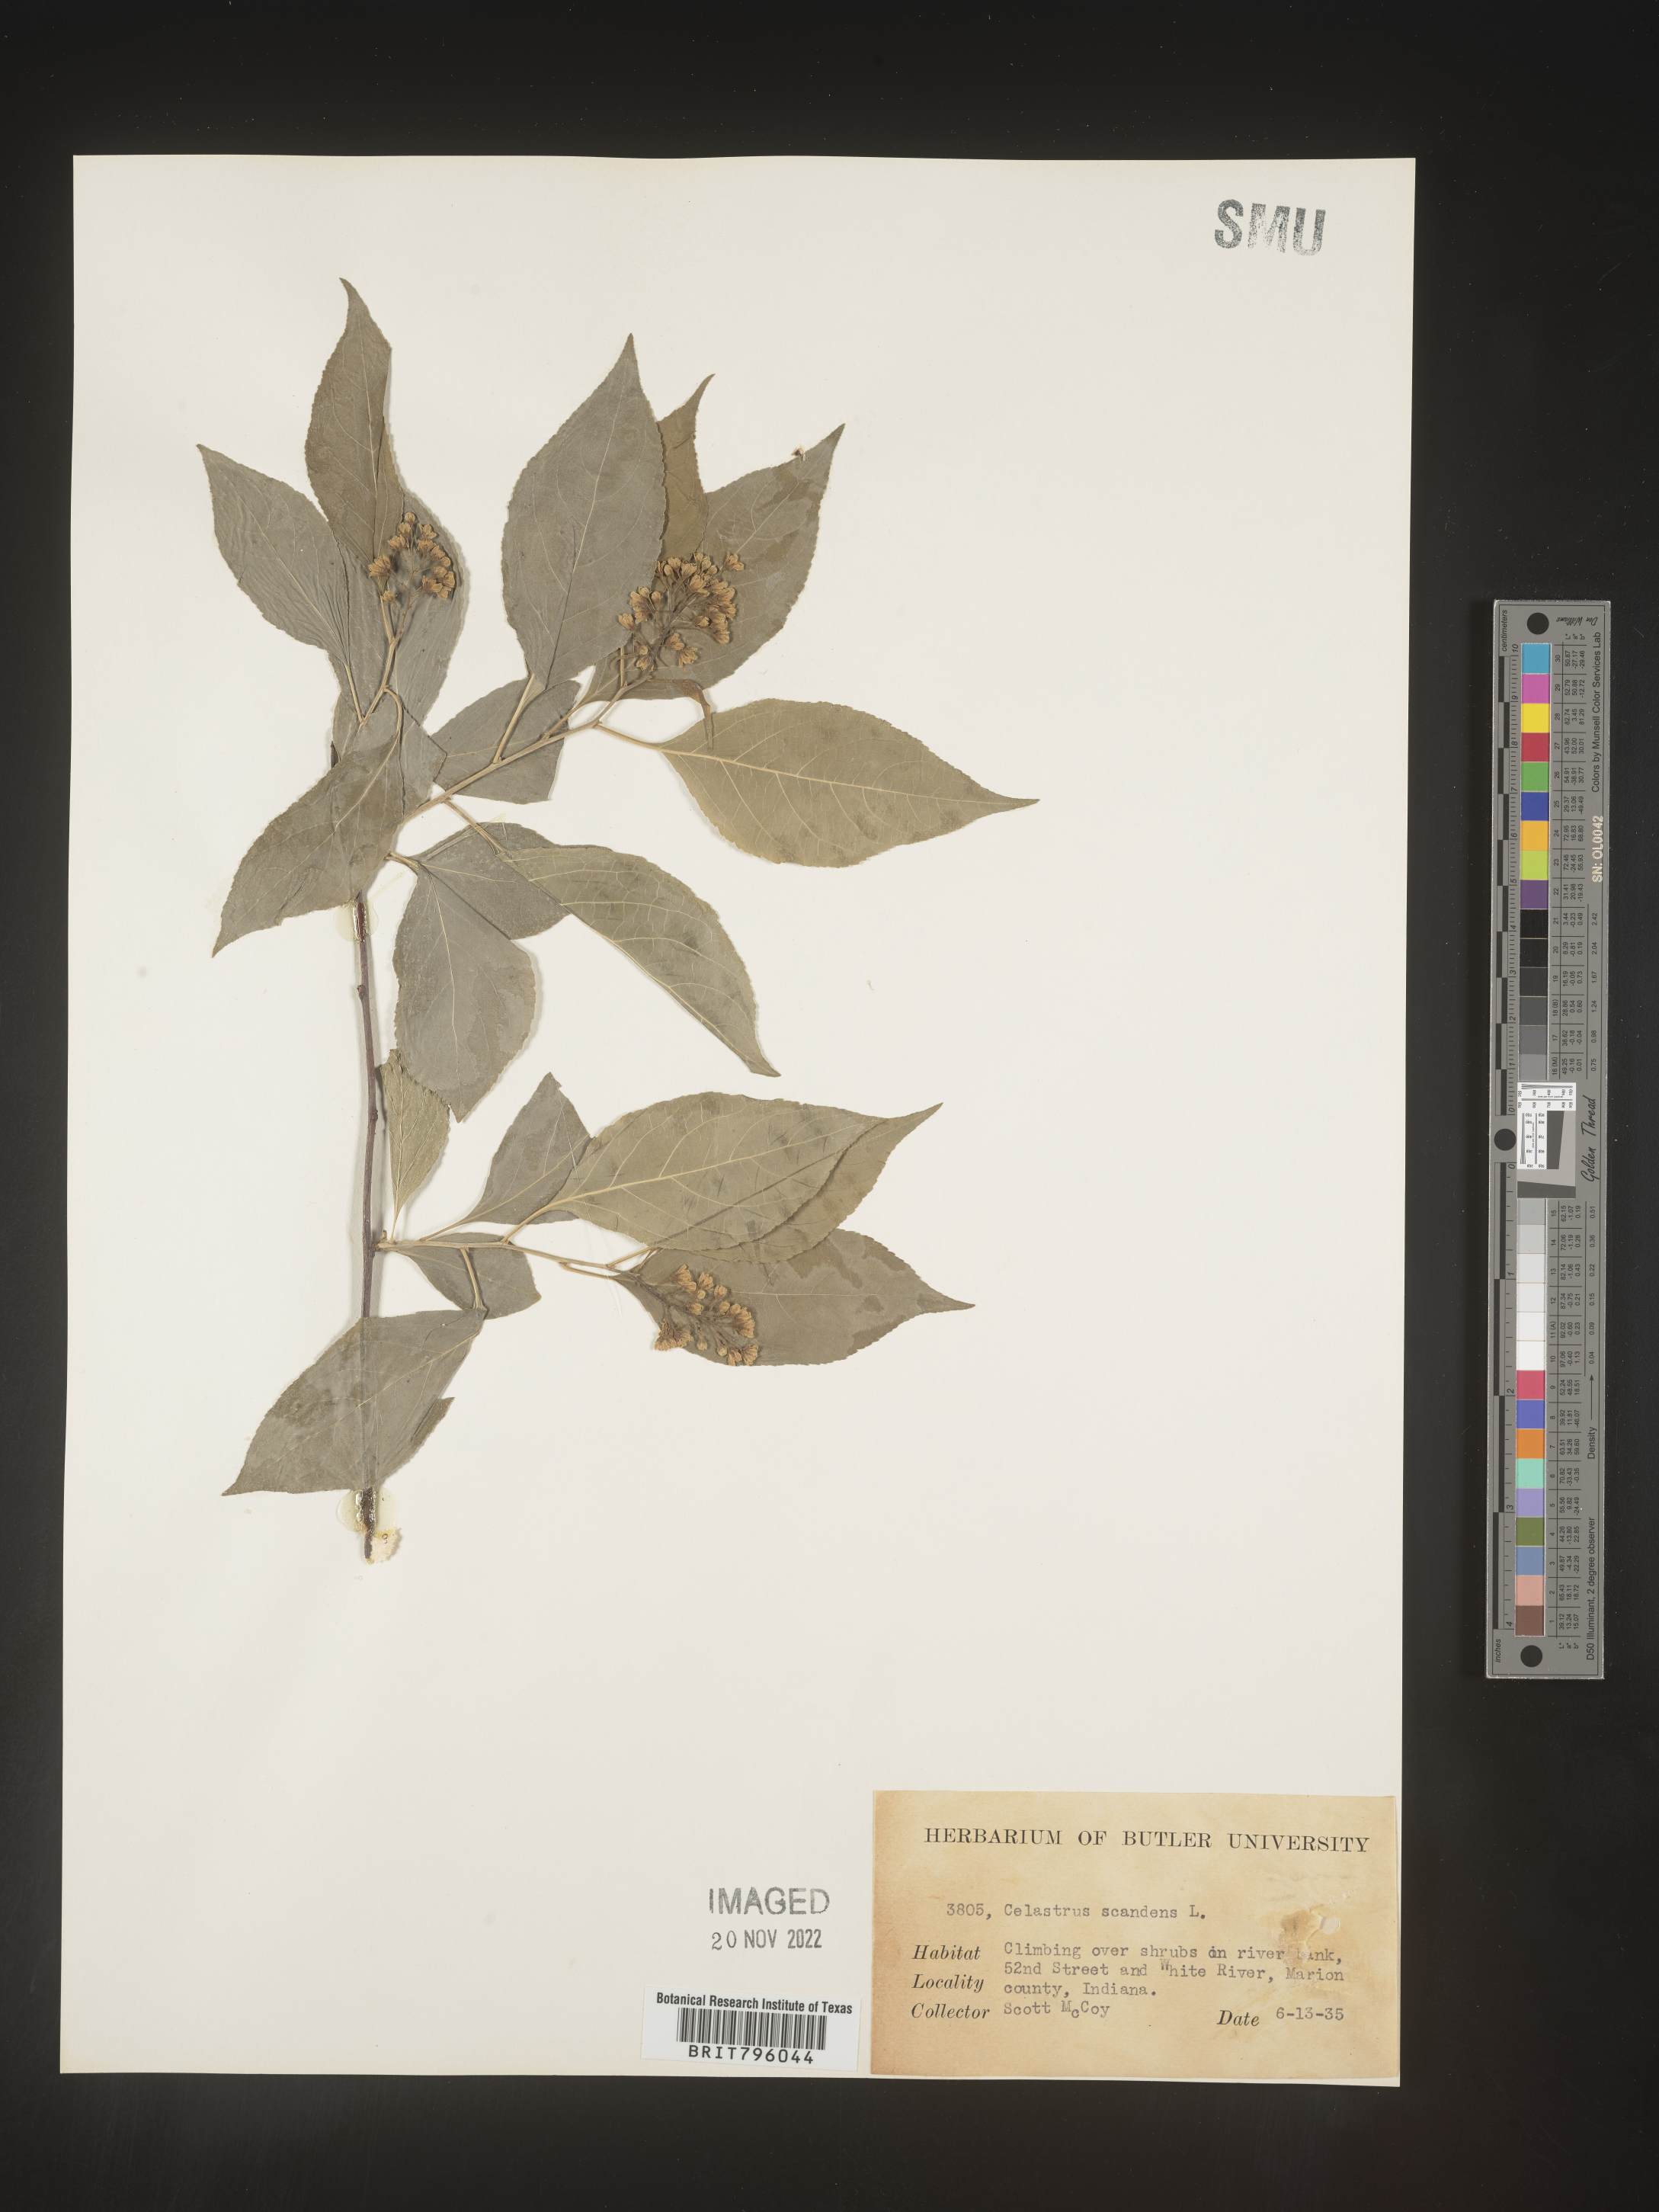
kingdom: Plantae
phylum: Tracheophyta
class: Magnoliopsida
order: Celastrales
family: Celastraceae
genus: Celastrus
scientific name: Celastrus scandens
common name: American bittersweet
